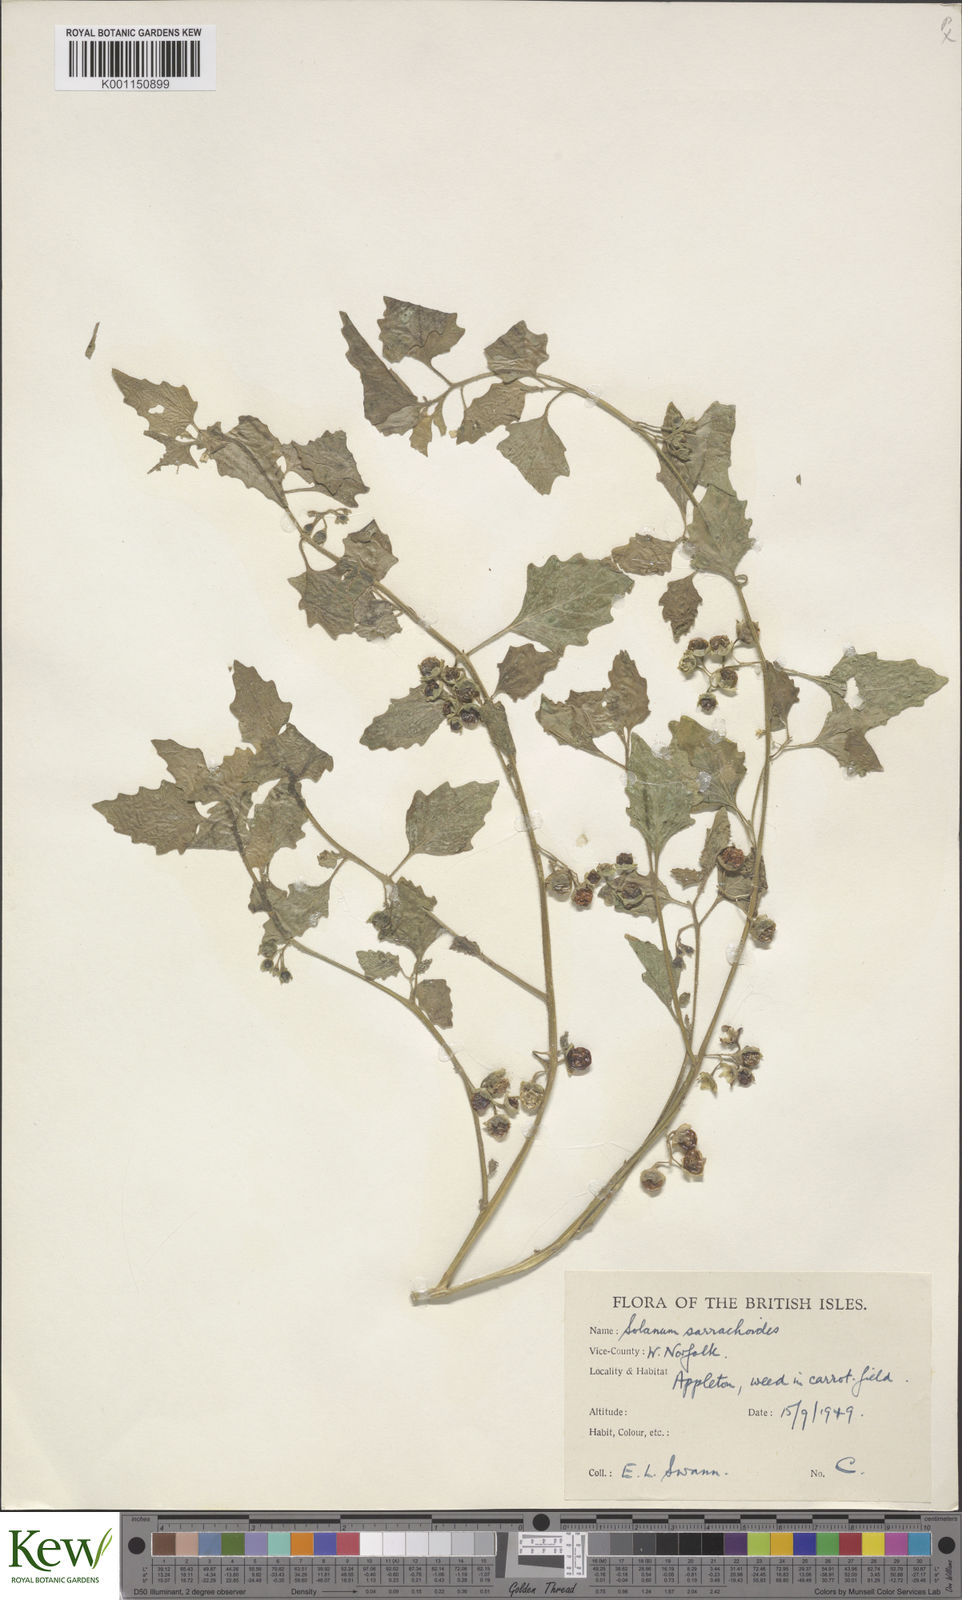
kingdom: Plantae
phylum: Tracheophyta
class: Magnoliopsida
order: Solanales
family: Solanaceae
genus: Solanum
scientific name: Solanum nitidibaccatum
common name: Hairy nightshade
